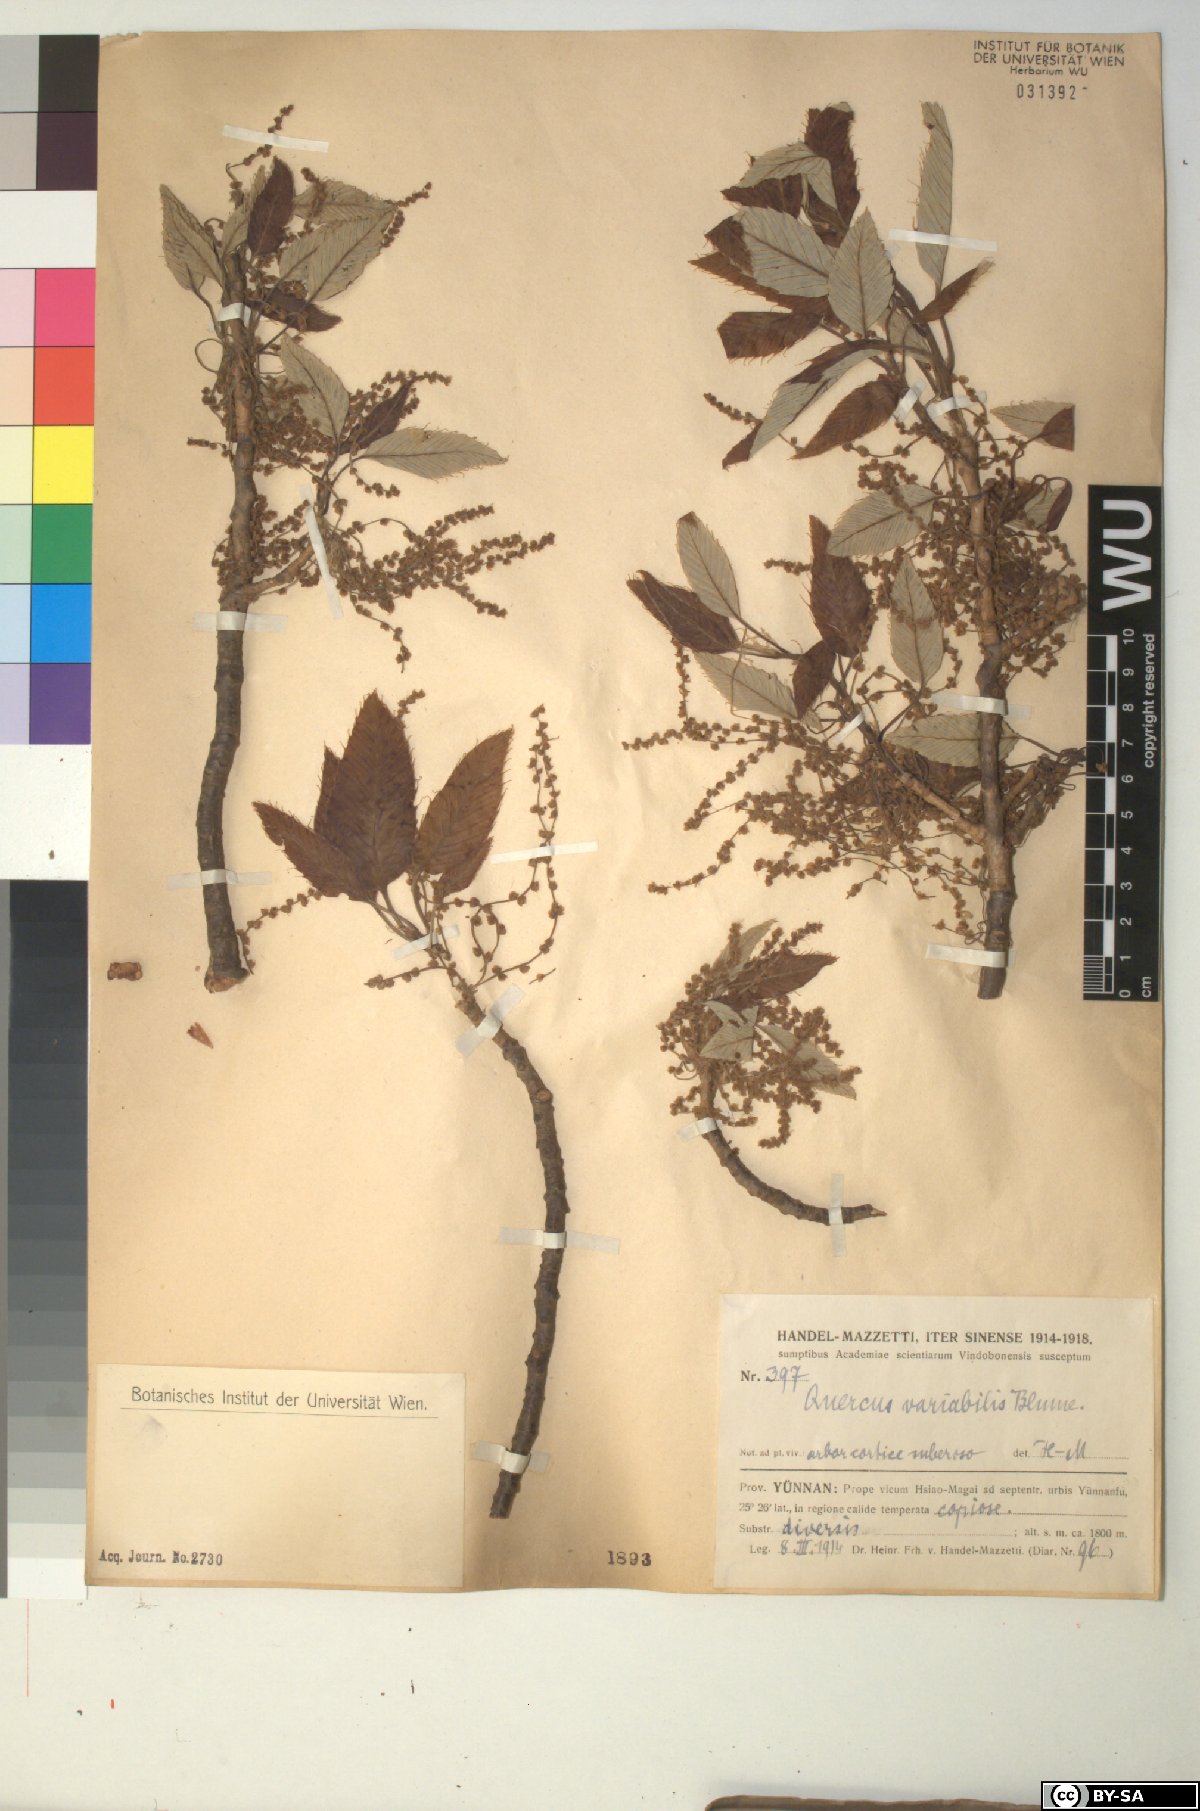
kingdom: Plantae
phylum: Tracheophyta
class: Magnoliopsida
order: Fagales
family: Fagaceae
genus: Quercus
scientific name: Quercus variabilis
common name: Chinese cork oak
